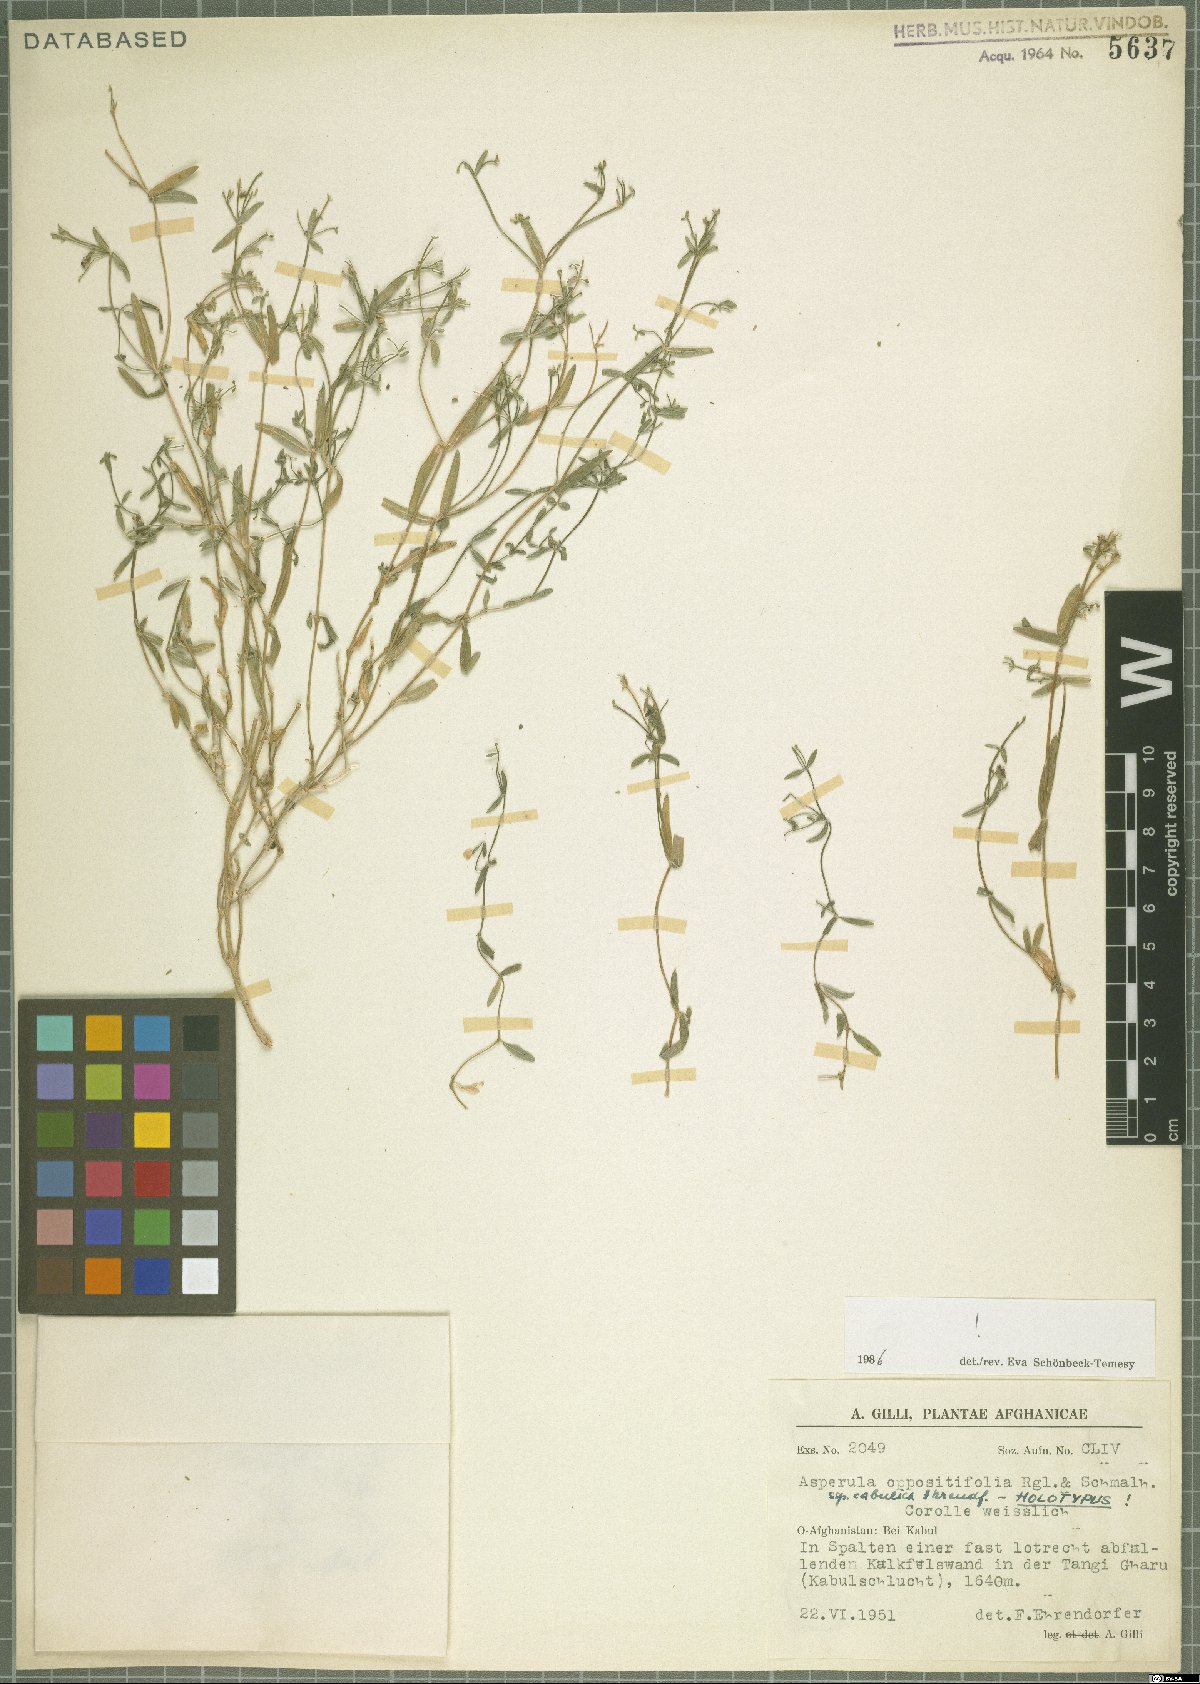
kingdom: Plantae
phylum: Tracheophyta
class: Magnoliopsida
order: Gentianales
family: Rubiaceae
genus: Asperula
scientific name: Asperula oppositifolia
